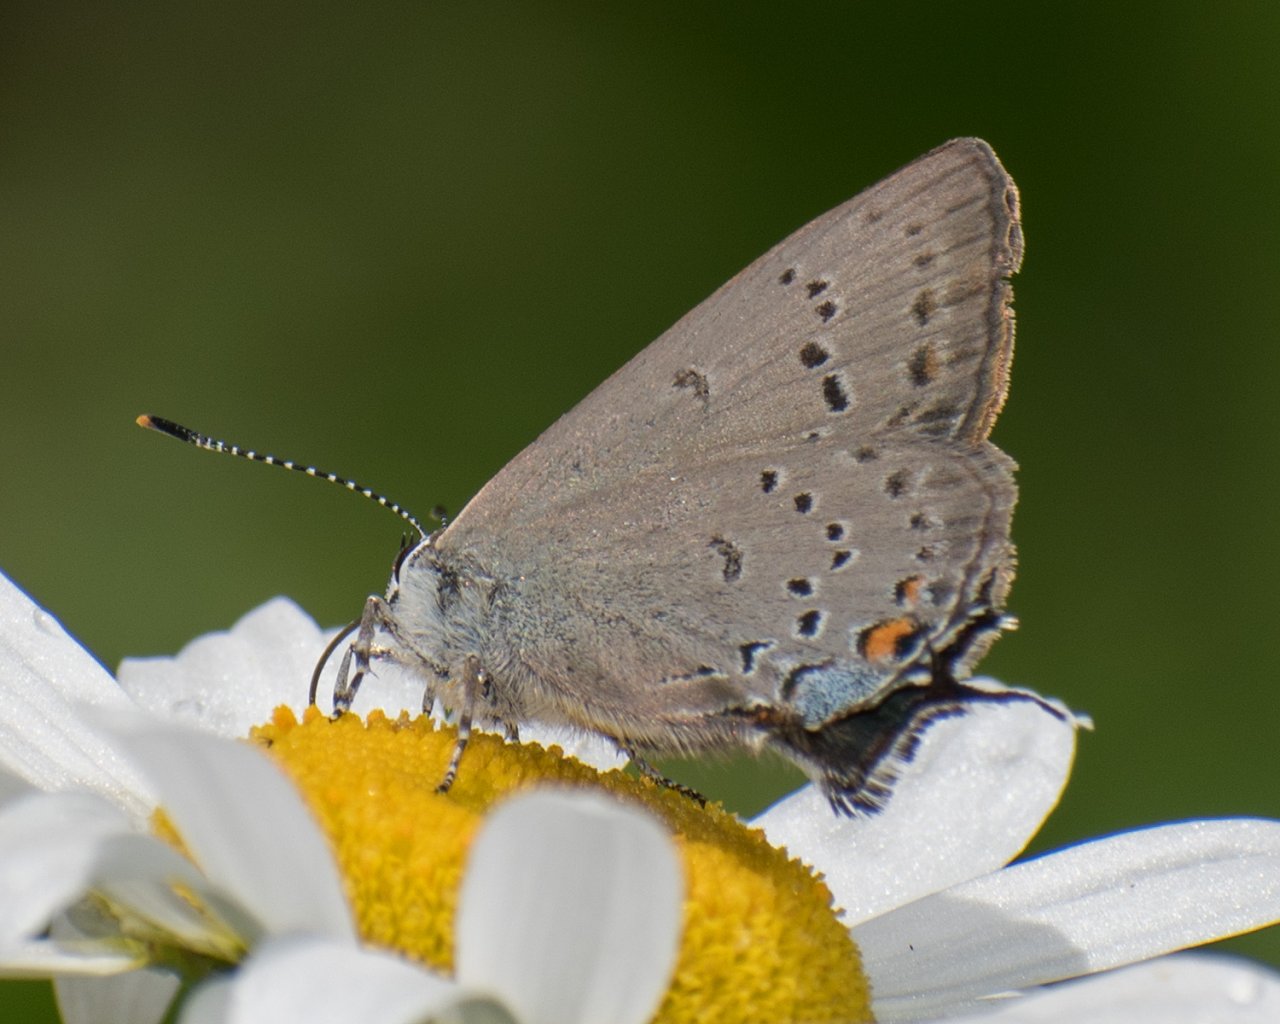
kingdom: Animalia
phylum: Arthropoda
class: Insecta
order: Lepidoptera
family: Lycaenidae
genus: Strymon
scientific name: Strymon sylvinus
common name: Sylvan Hairstreak
